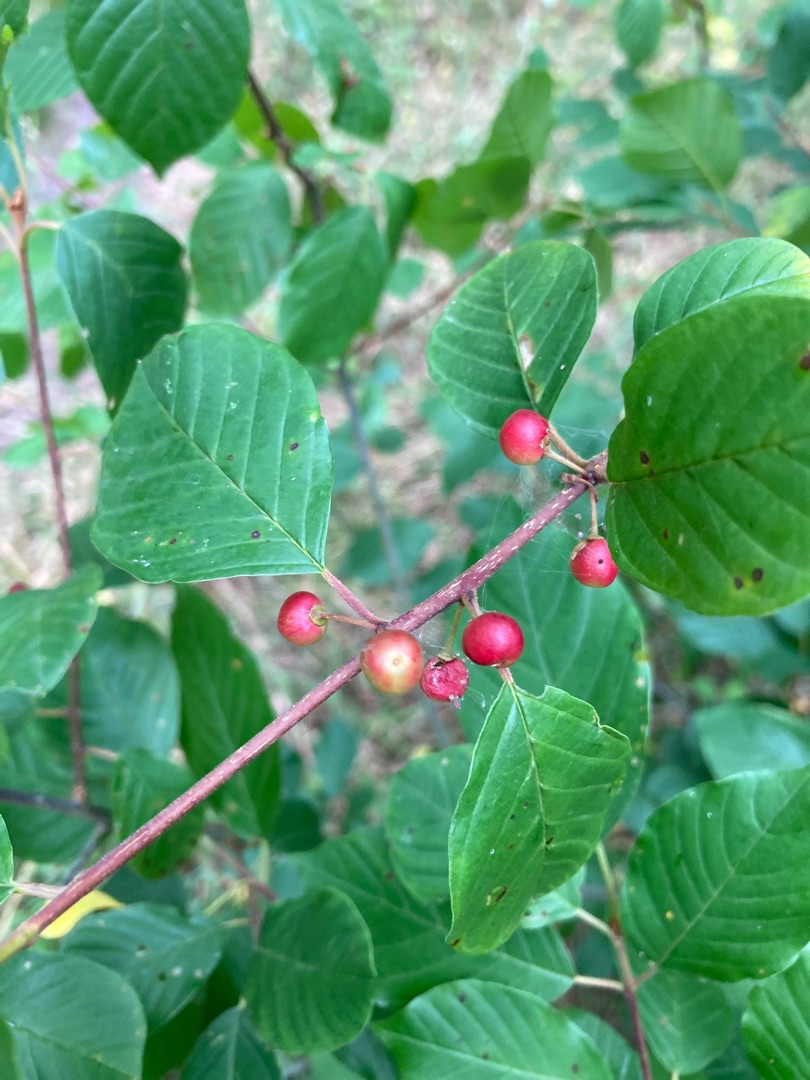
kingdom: Plantae
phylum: Tracheophyta
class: Magnoliopsida
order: Rosales
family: Rhamnaceae
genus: Frangula
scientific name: Frangula alnus
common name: Tørst
